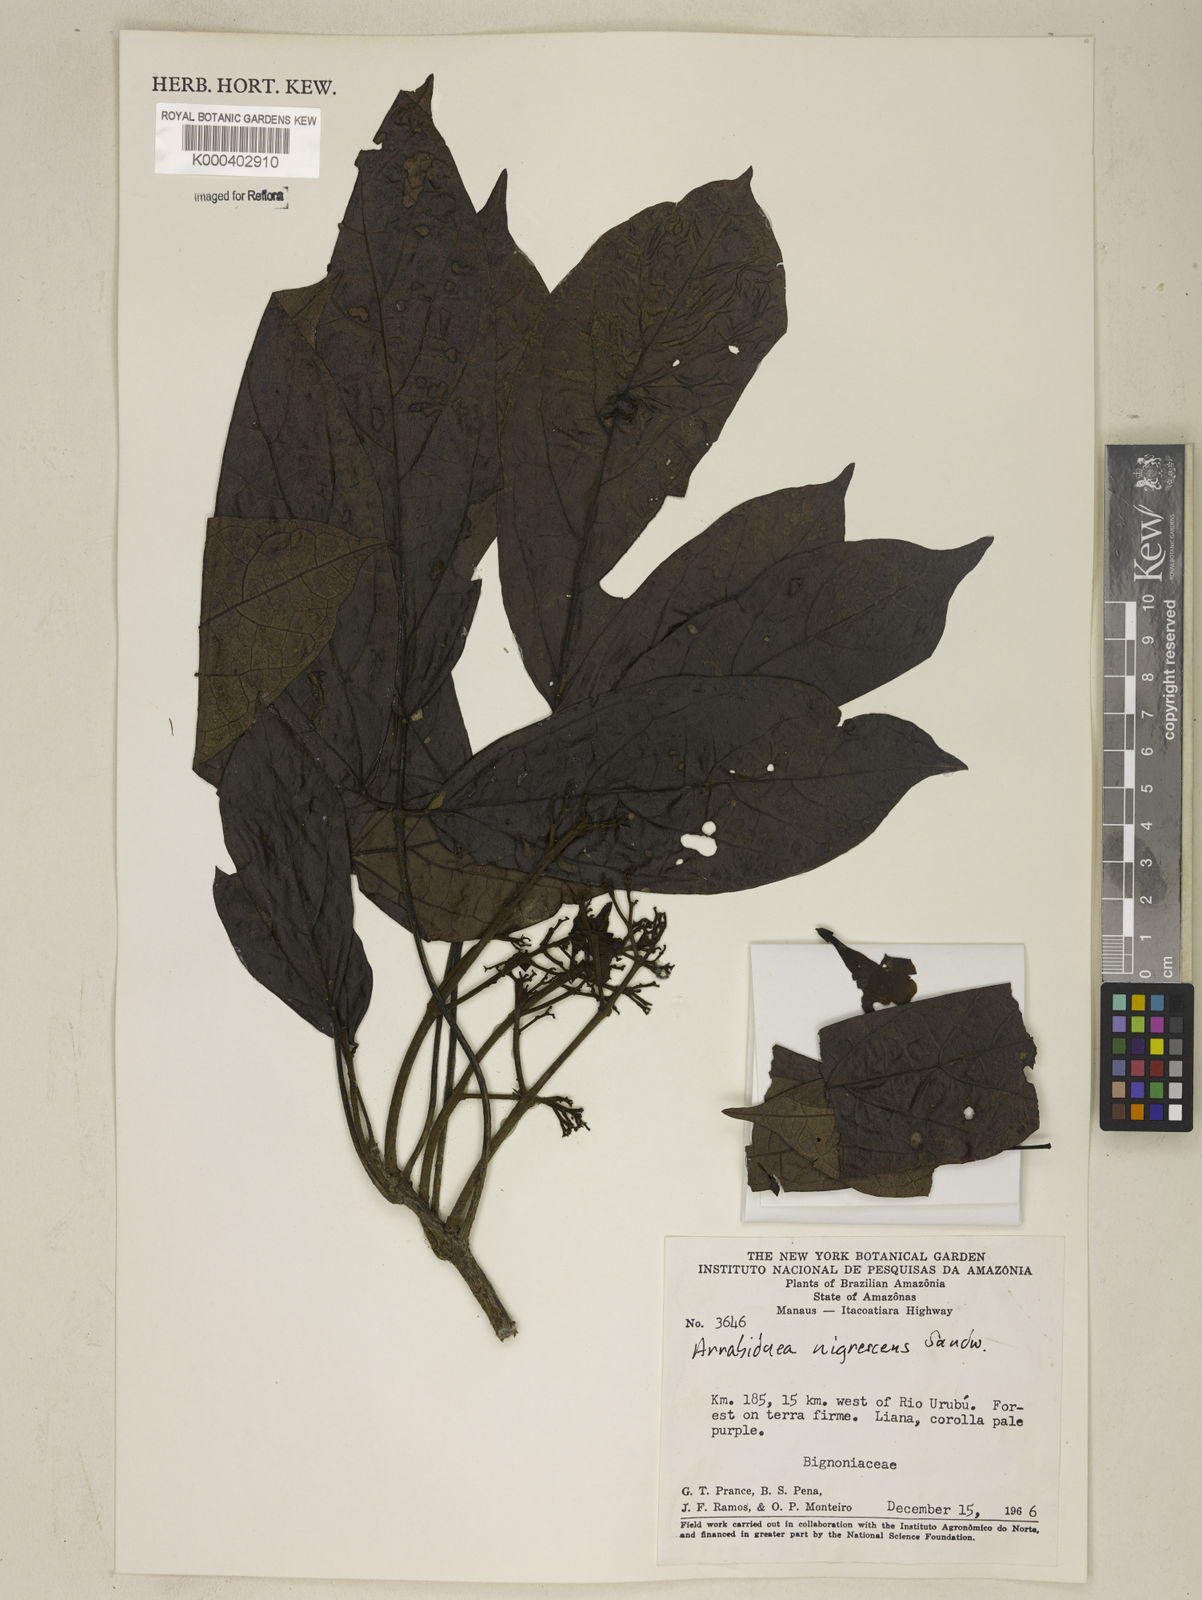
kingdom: Plantae
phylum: Tracheophyta
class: Magnoliopsida
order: Lamiales
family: Bignoniaceae
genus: Fridericia
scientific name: Fridericia nigrescens
